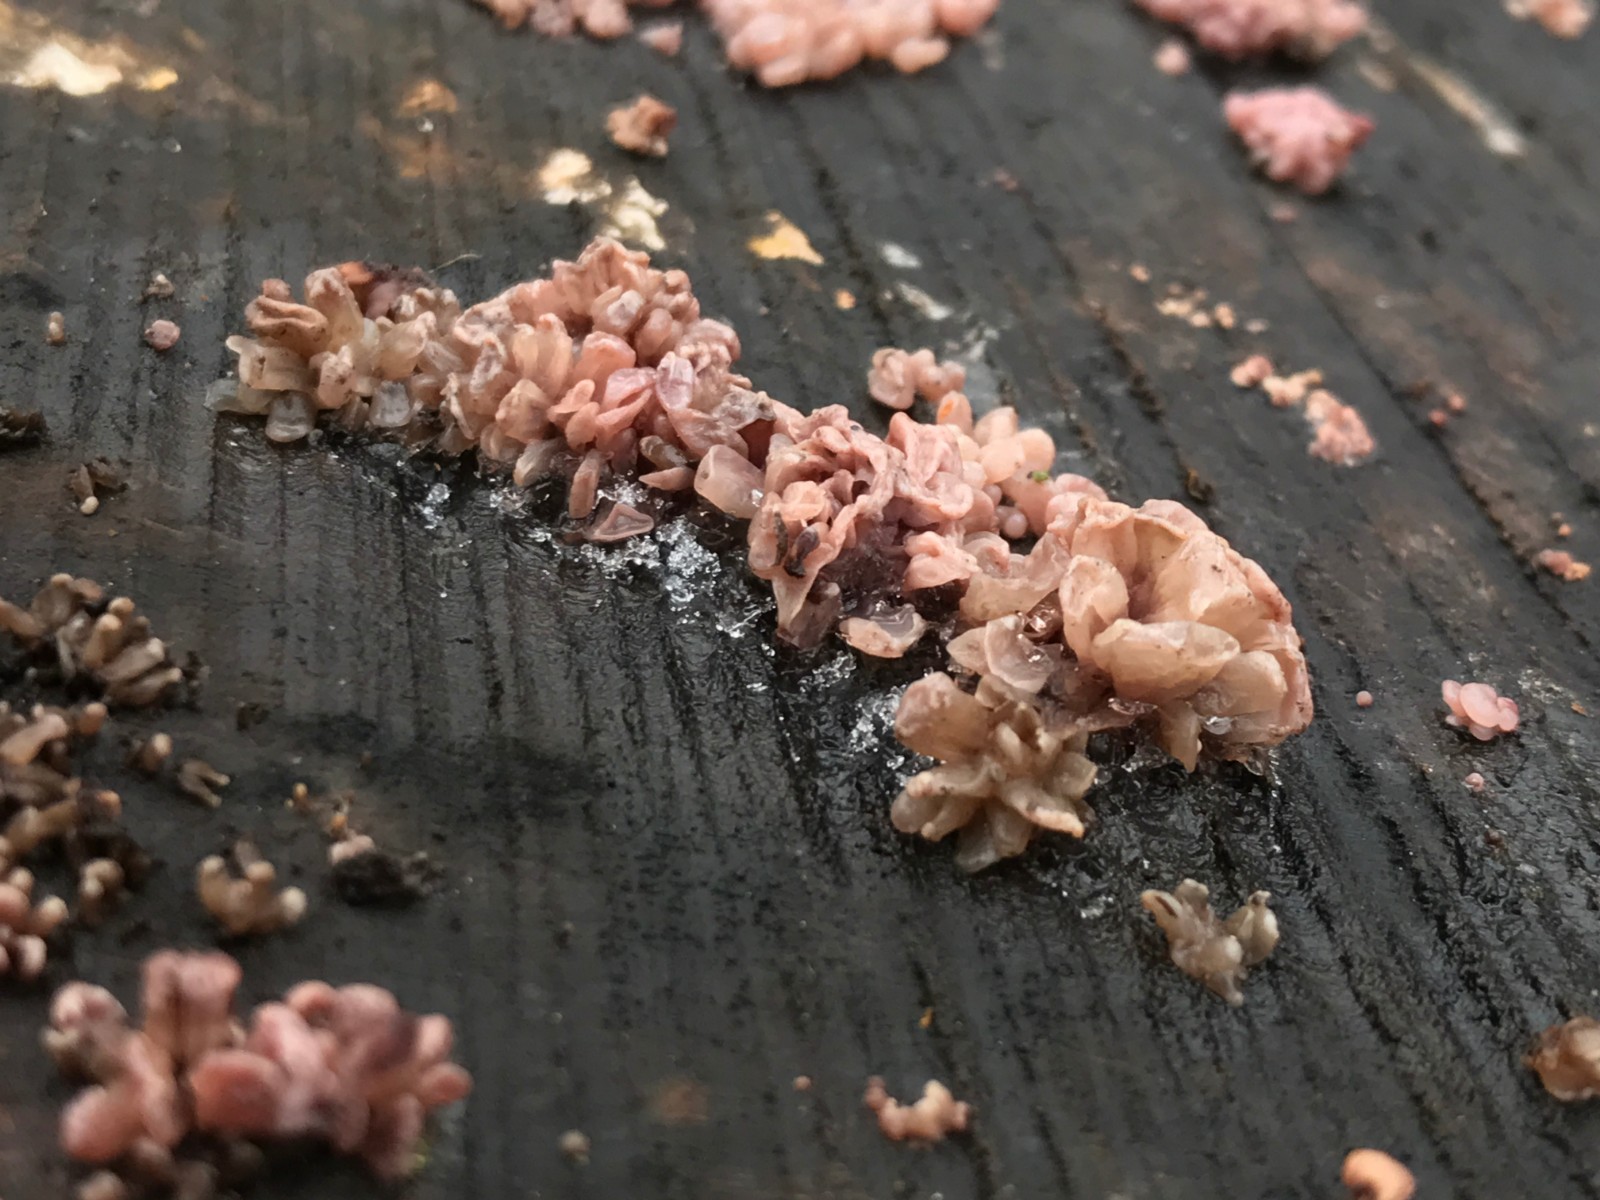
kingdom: Fungi
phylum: Ascomycota
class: Leotiomycetes
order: Helotiales
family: Gelatinodiscaceae
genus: Ascocoryne
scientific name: Ascocoryne sarcoides
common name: rødlilla sejskive
